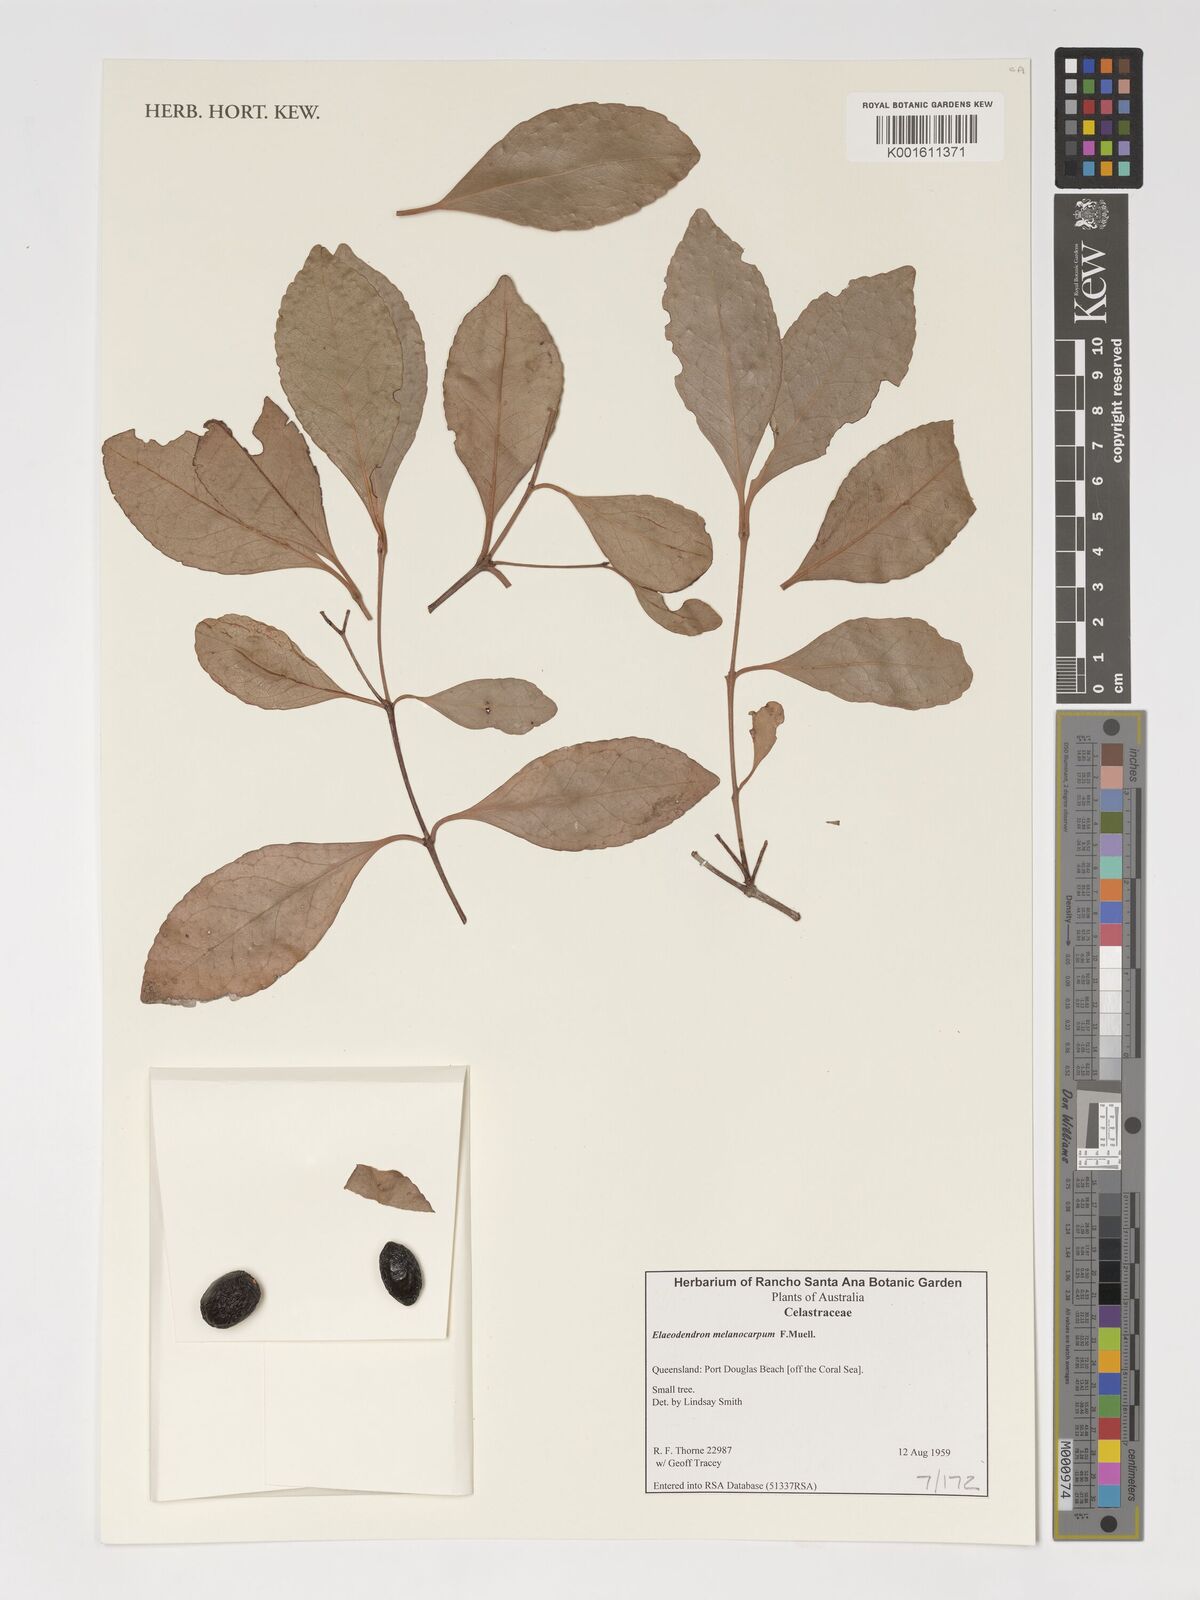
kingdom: Plantae
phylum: Tracheophyta
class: Magnoliopsida
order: Celastrales
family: Celastraceae
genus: Elaeodendron
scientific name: Elaeodendron melanocarpum
